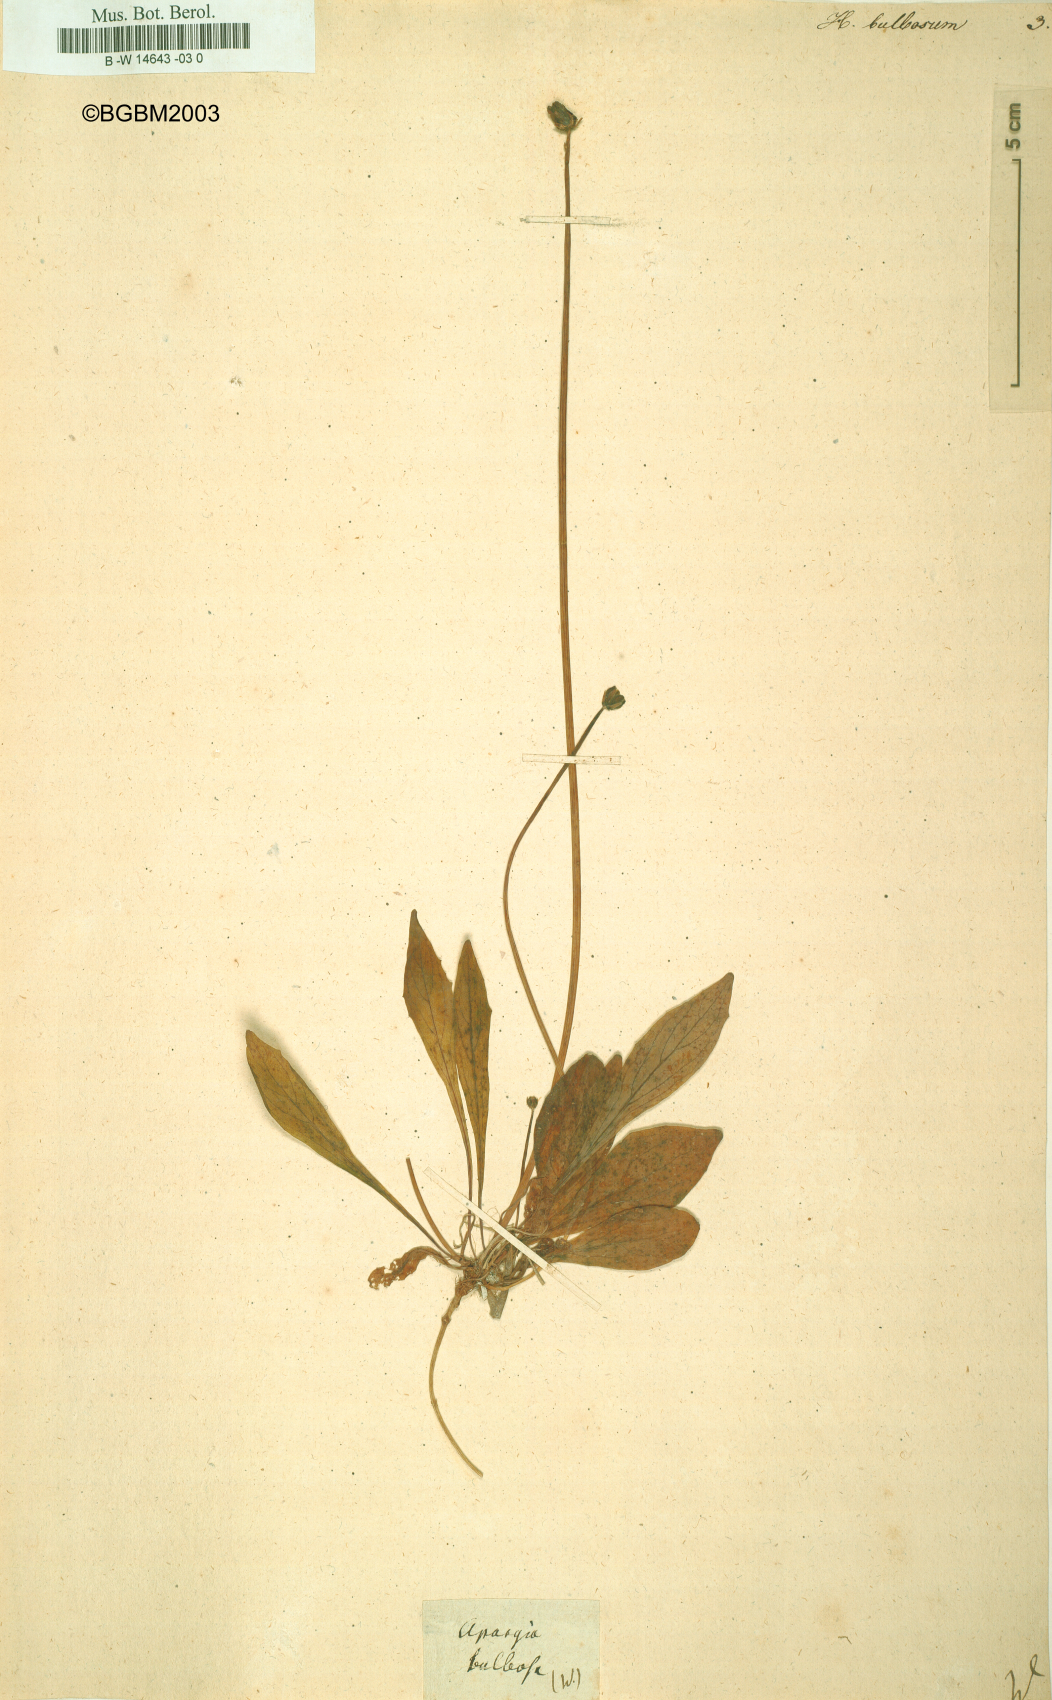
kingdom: Plantae
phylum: Tracheophyta
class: Magnoliopsida
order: Asterales
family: Asteraceae
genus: Aetheorhiza
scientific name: Aetheorhiza bulbosa
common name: Tuberous hawk's-beard
